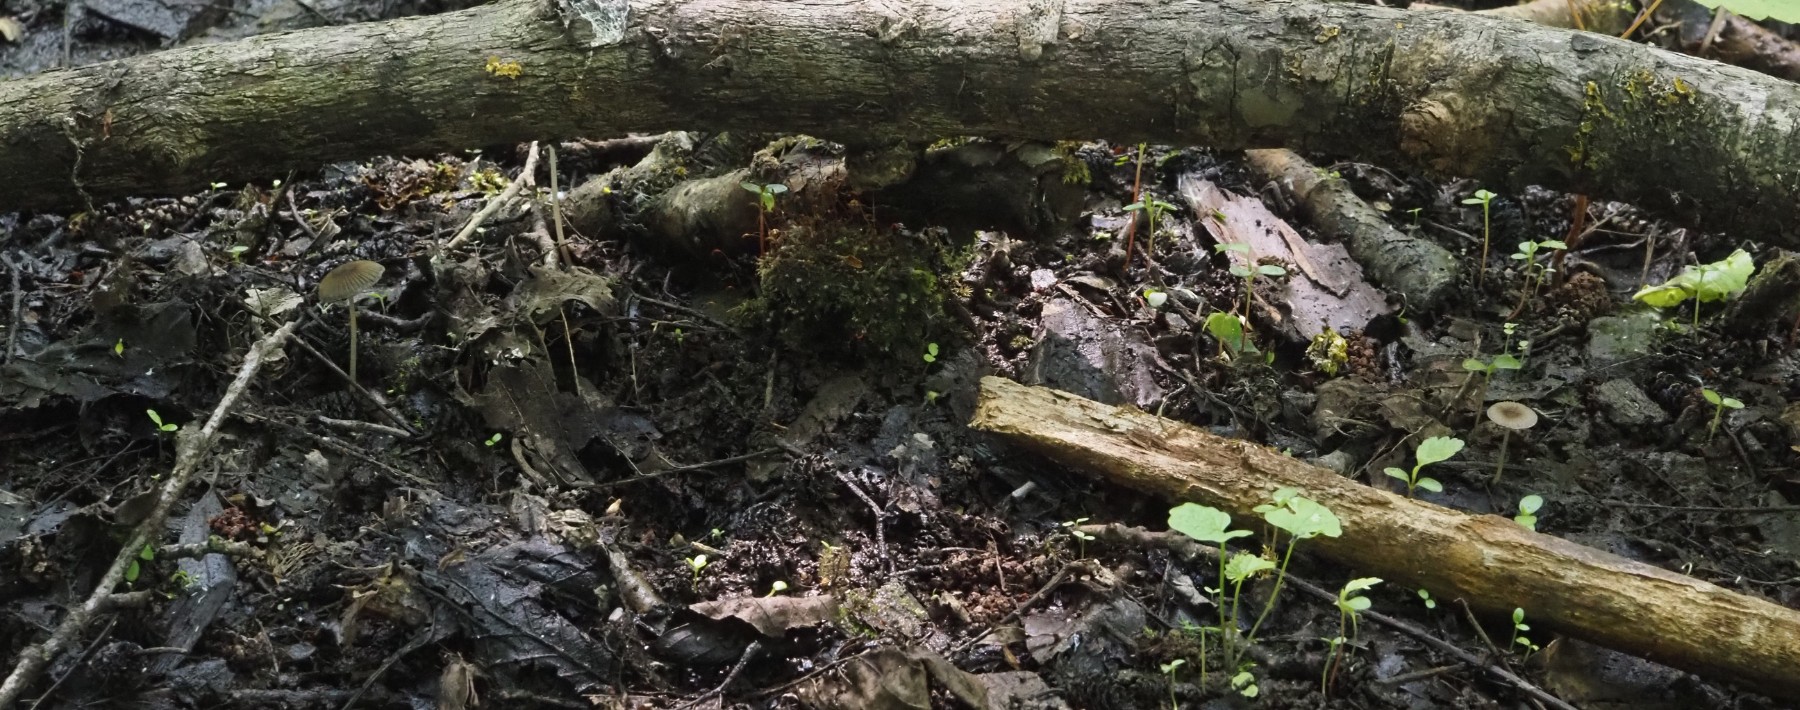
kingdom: Fungi
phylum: Basidiomycota
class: Agaricomycetes
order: Agaricales
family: Psathyrellaceae
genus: Parasola
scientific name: Parasola
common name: hjulhat
